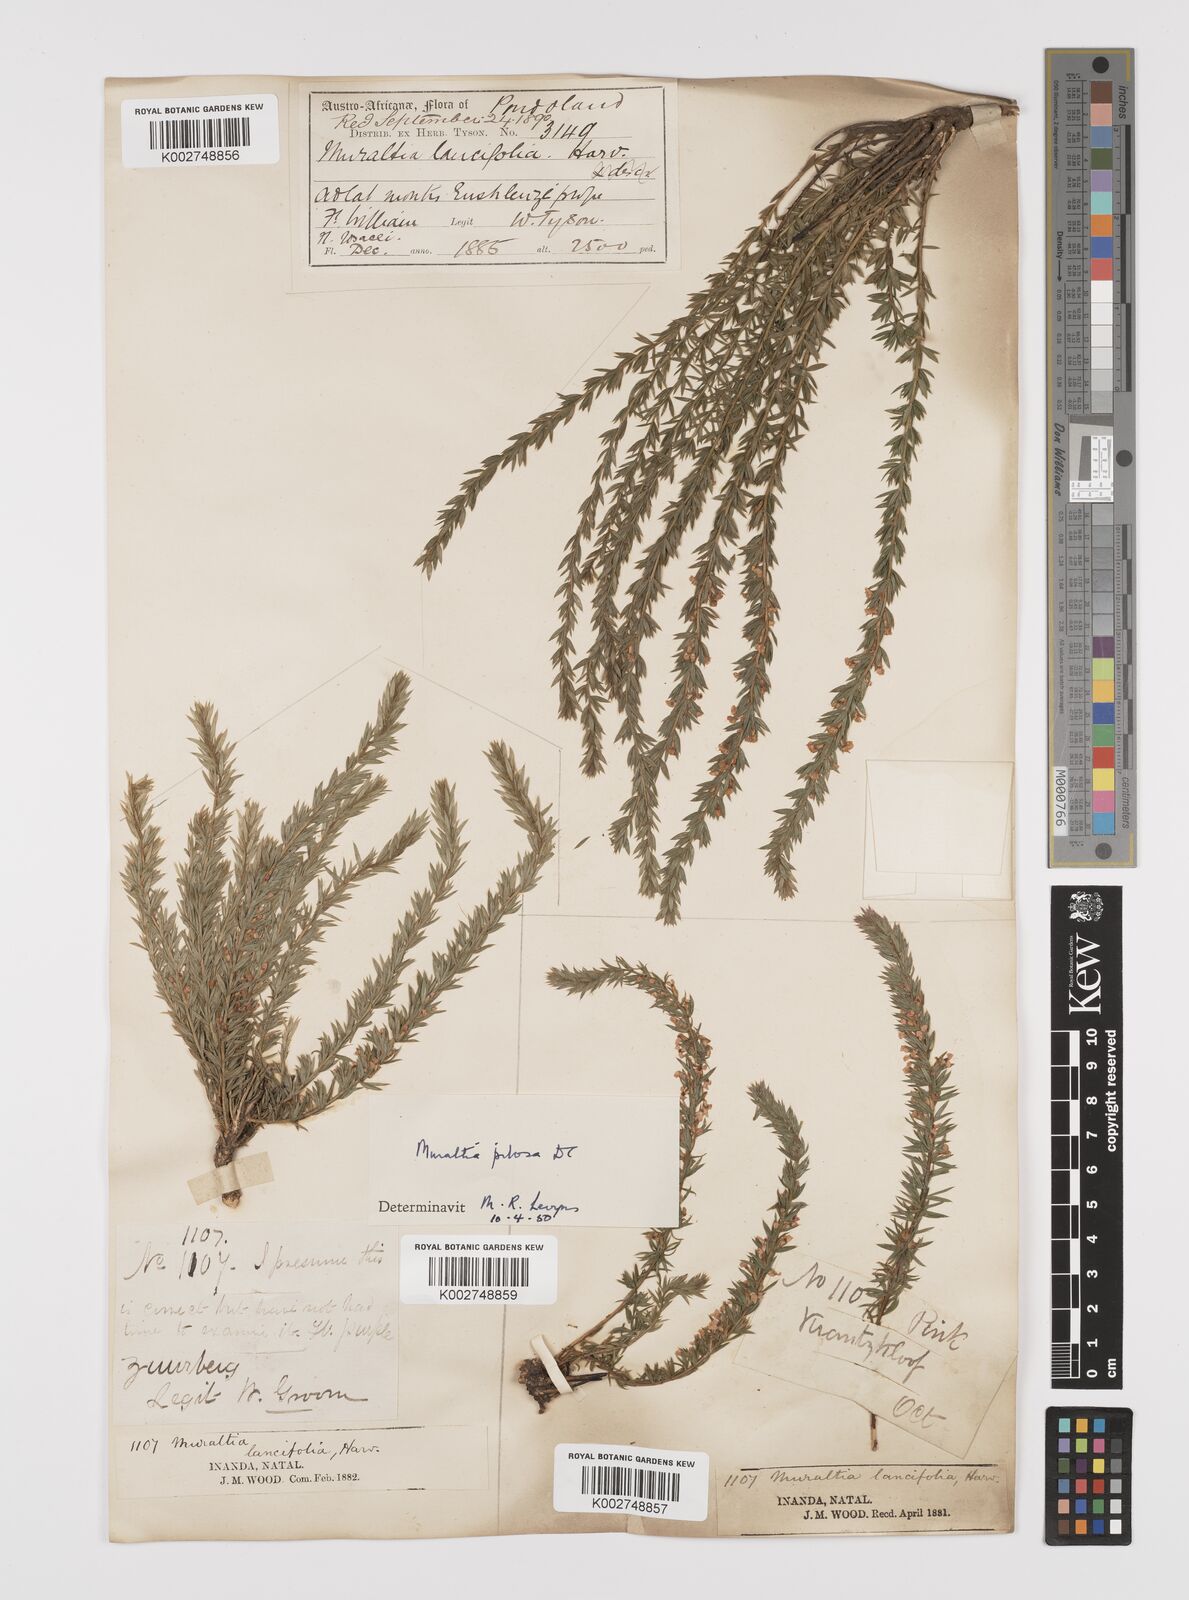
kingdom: Plantae
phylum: Tracheophyta
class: Magnoliopsida
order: Fabales
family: Polygalaceae
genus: Muraltia
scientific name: Muraltia lancifolia
